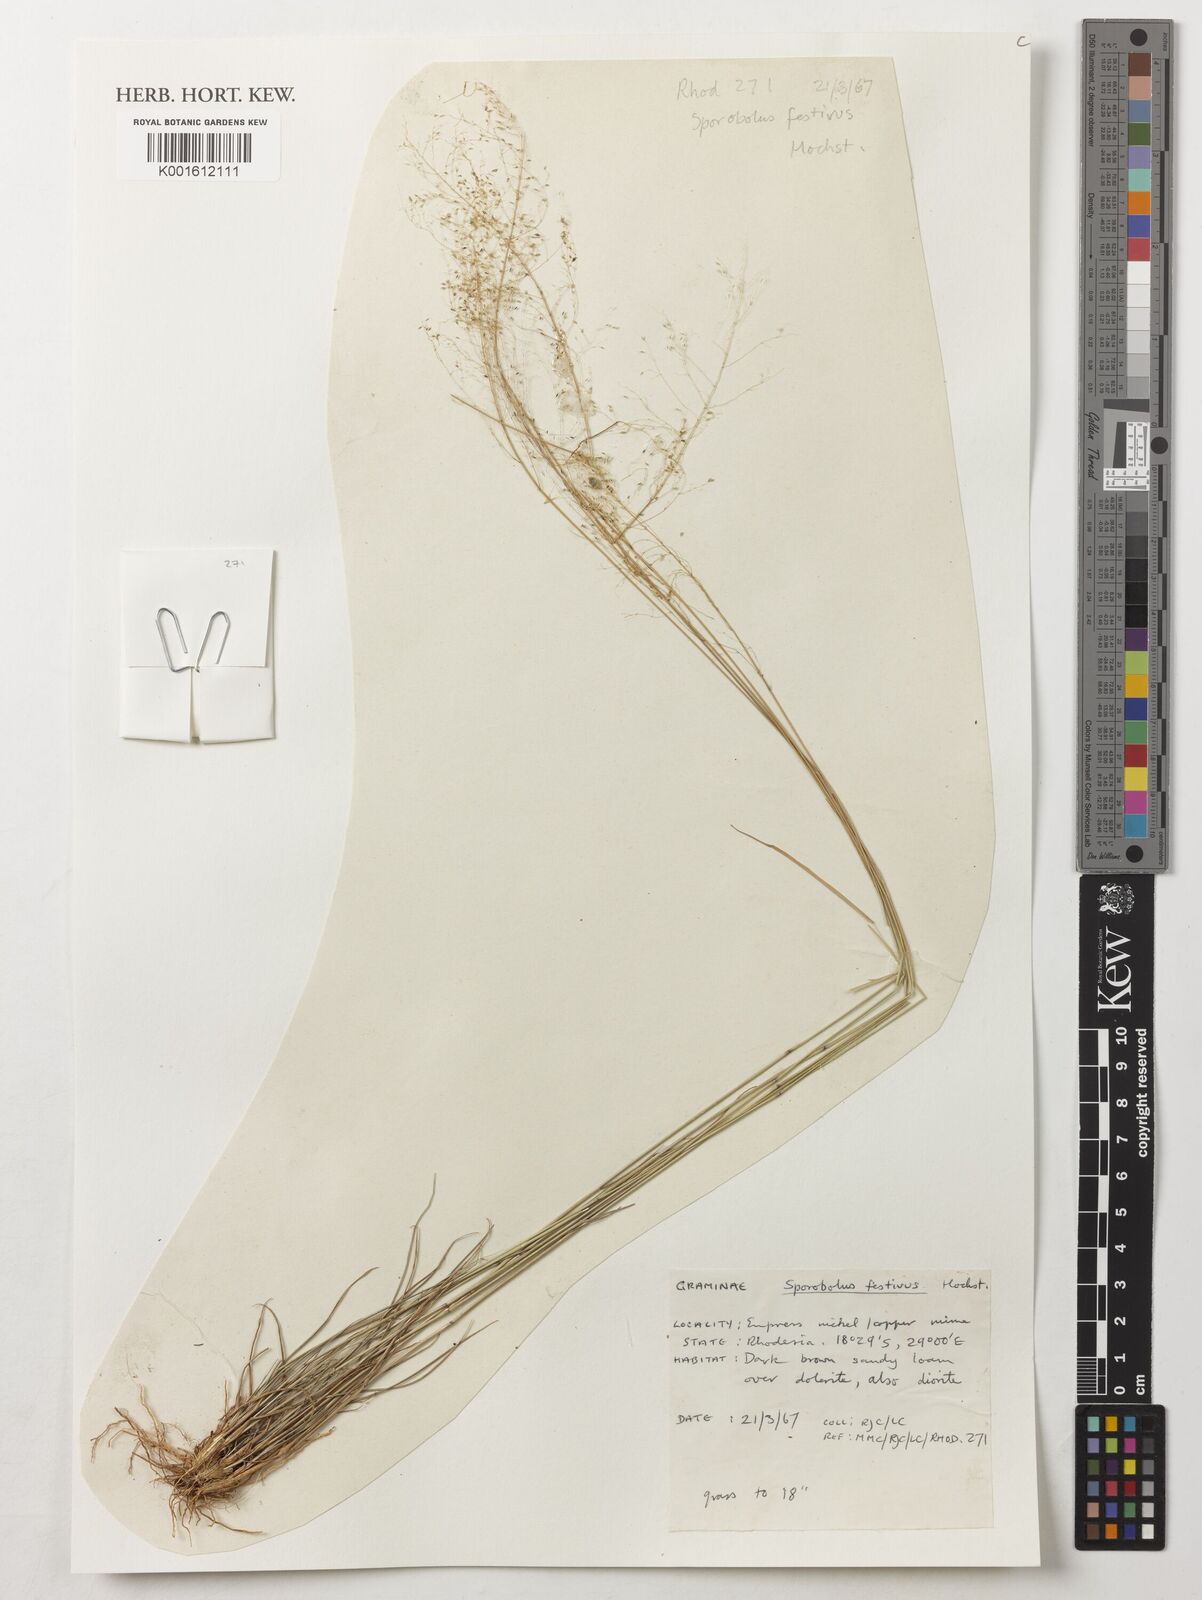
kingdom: Plantae
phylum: Tracheophyta
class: Liliopsida
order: Poales
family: Poaceae
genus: Sporobolus
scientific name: Sporobolus festivus
